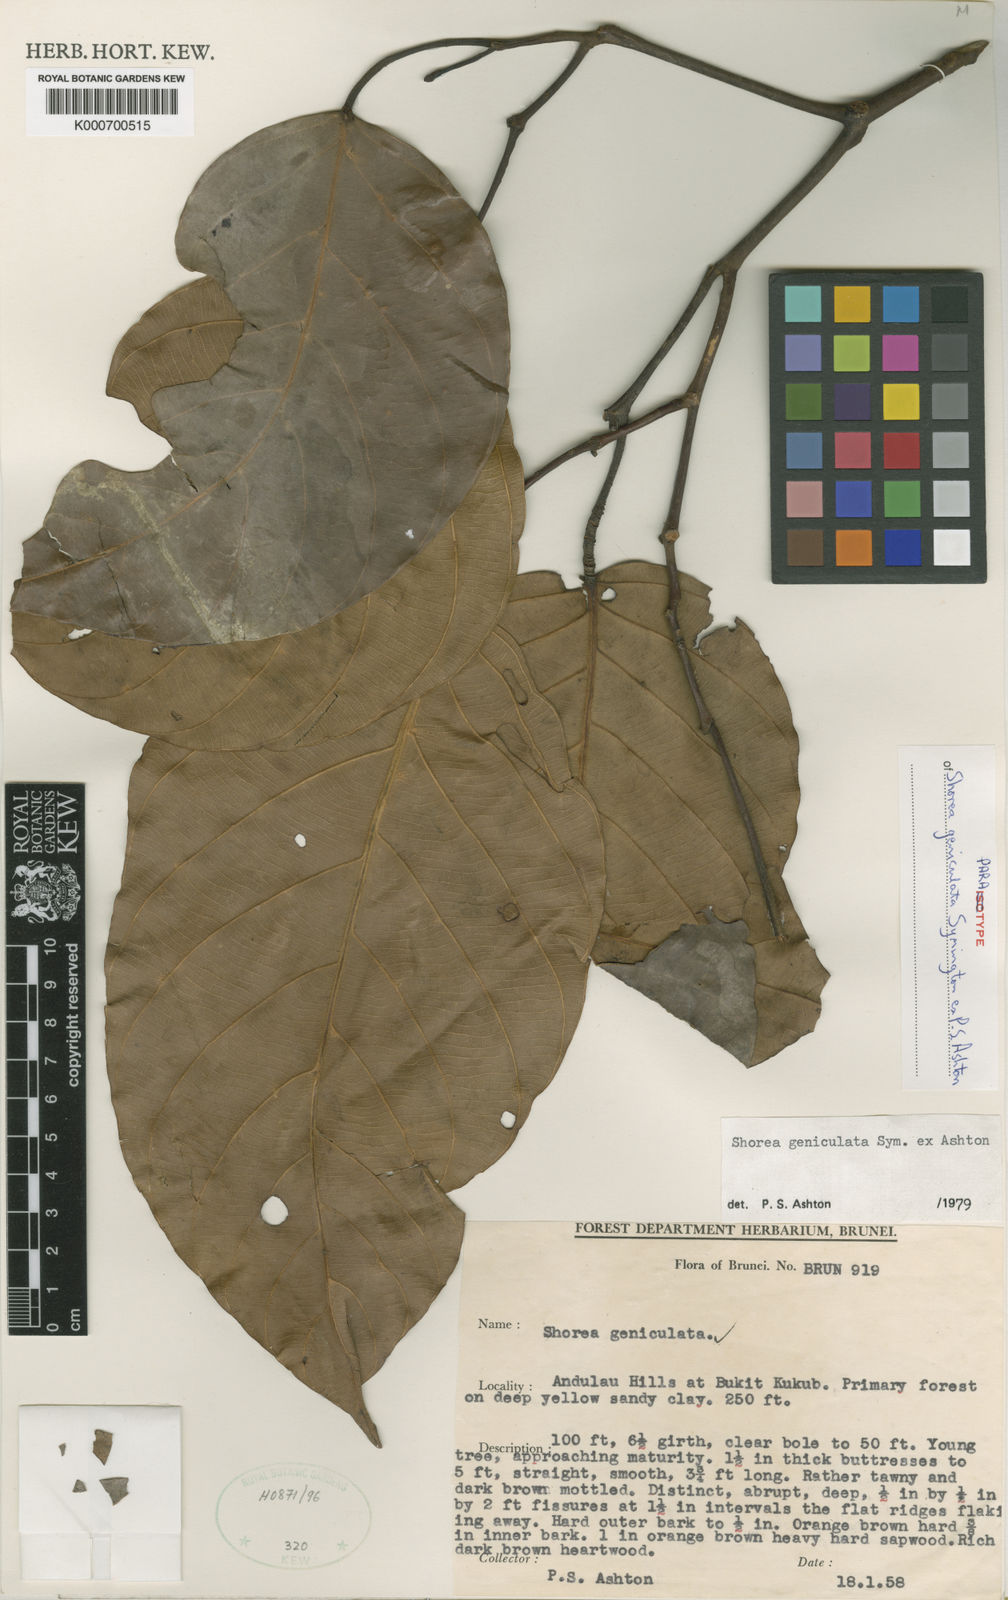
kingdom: Plantae
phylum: Tracheophyta
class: Magnoliopsida
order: Malvales
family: Dipterocarpaceae
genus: Shorea
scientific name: Shorea geniculata
